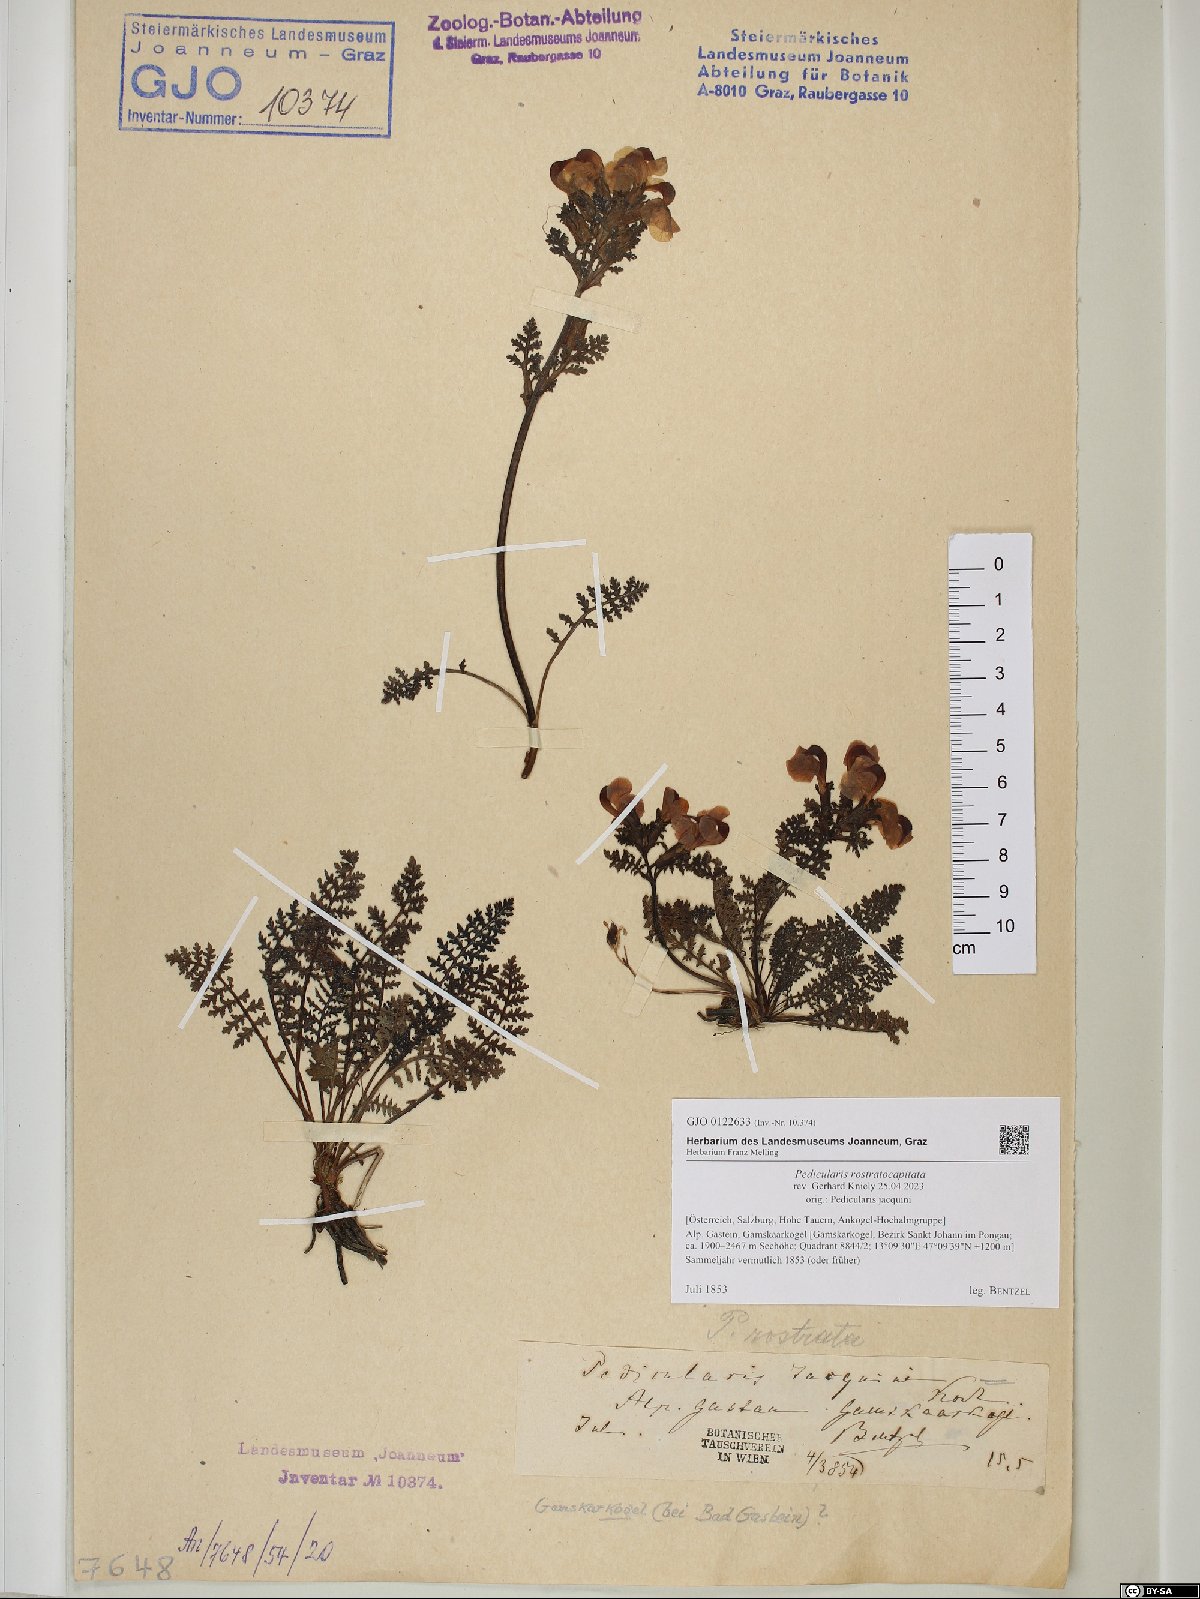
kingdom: Plantae
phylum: Tracheophyta
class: Magnoliopsida
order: Lamiales
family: Orobanchaceae
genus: Pedicularis
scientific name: Pedicularis rostratocapitata
